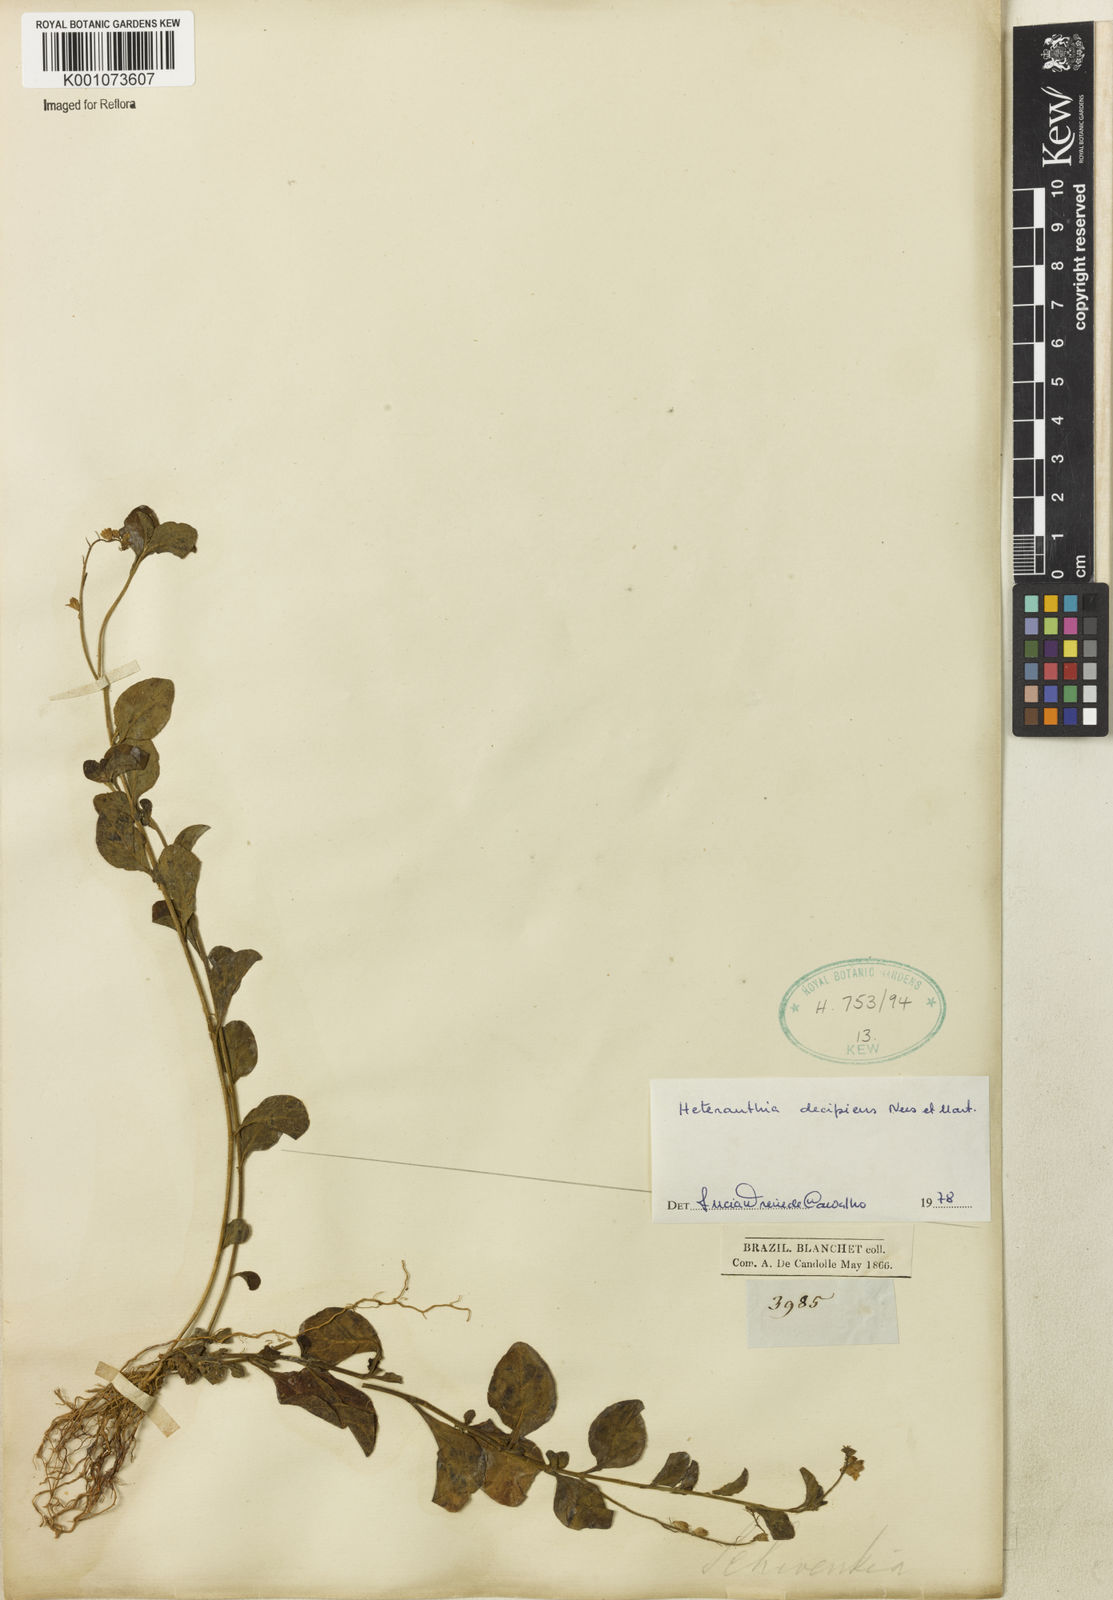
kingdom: Plantae
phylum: Tracheophyta
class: Magnoliopsida
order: Solanales
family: Solanaceae
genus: Heteranthia
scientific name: Heteranthia decipiens
